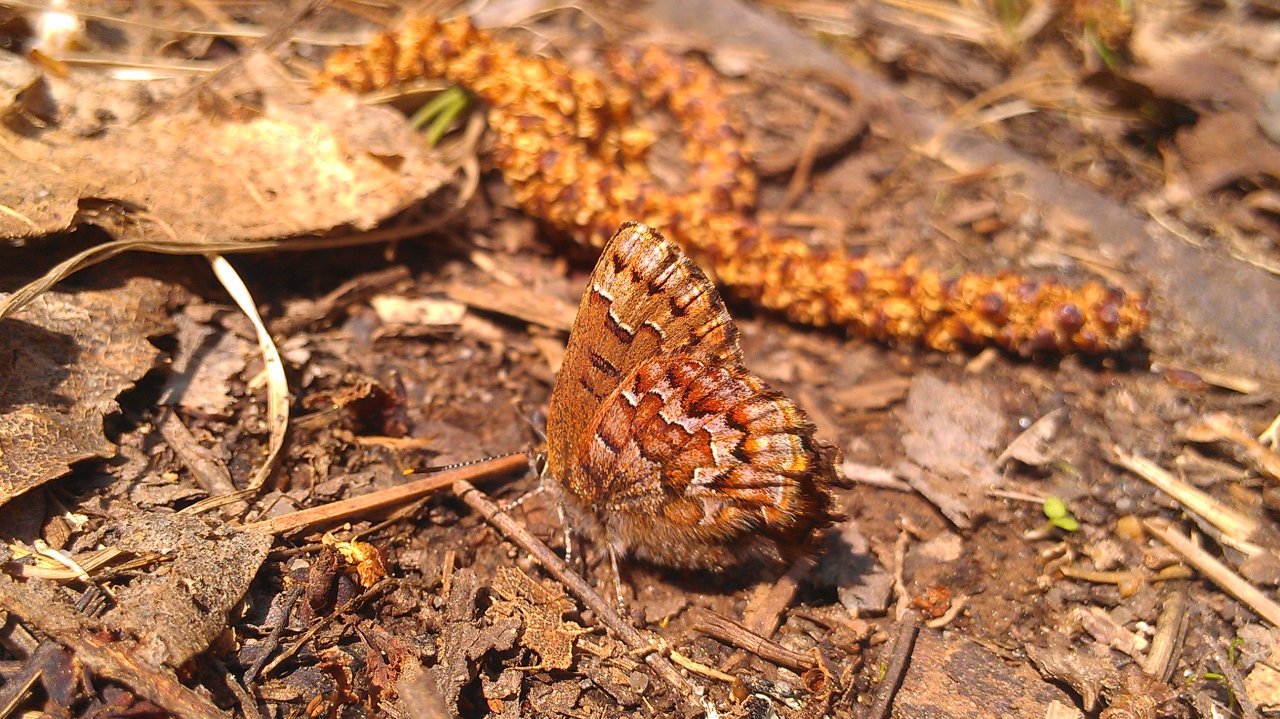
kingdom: Animalia
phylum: Arthropoda
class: Insecta
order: Lepidoptera
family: Lycaenidae
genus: Incisalia
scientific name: Incisalia niphon
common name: Eastern Pine Elfin
